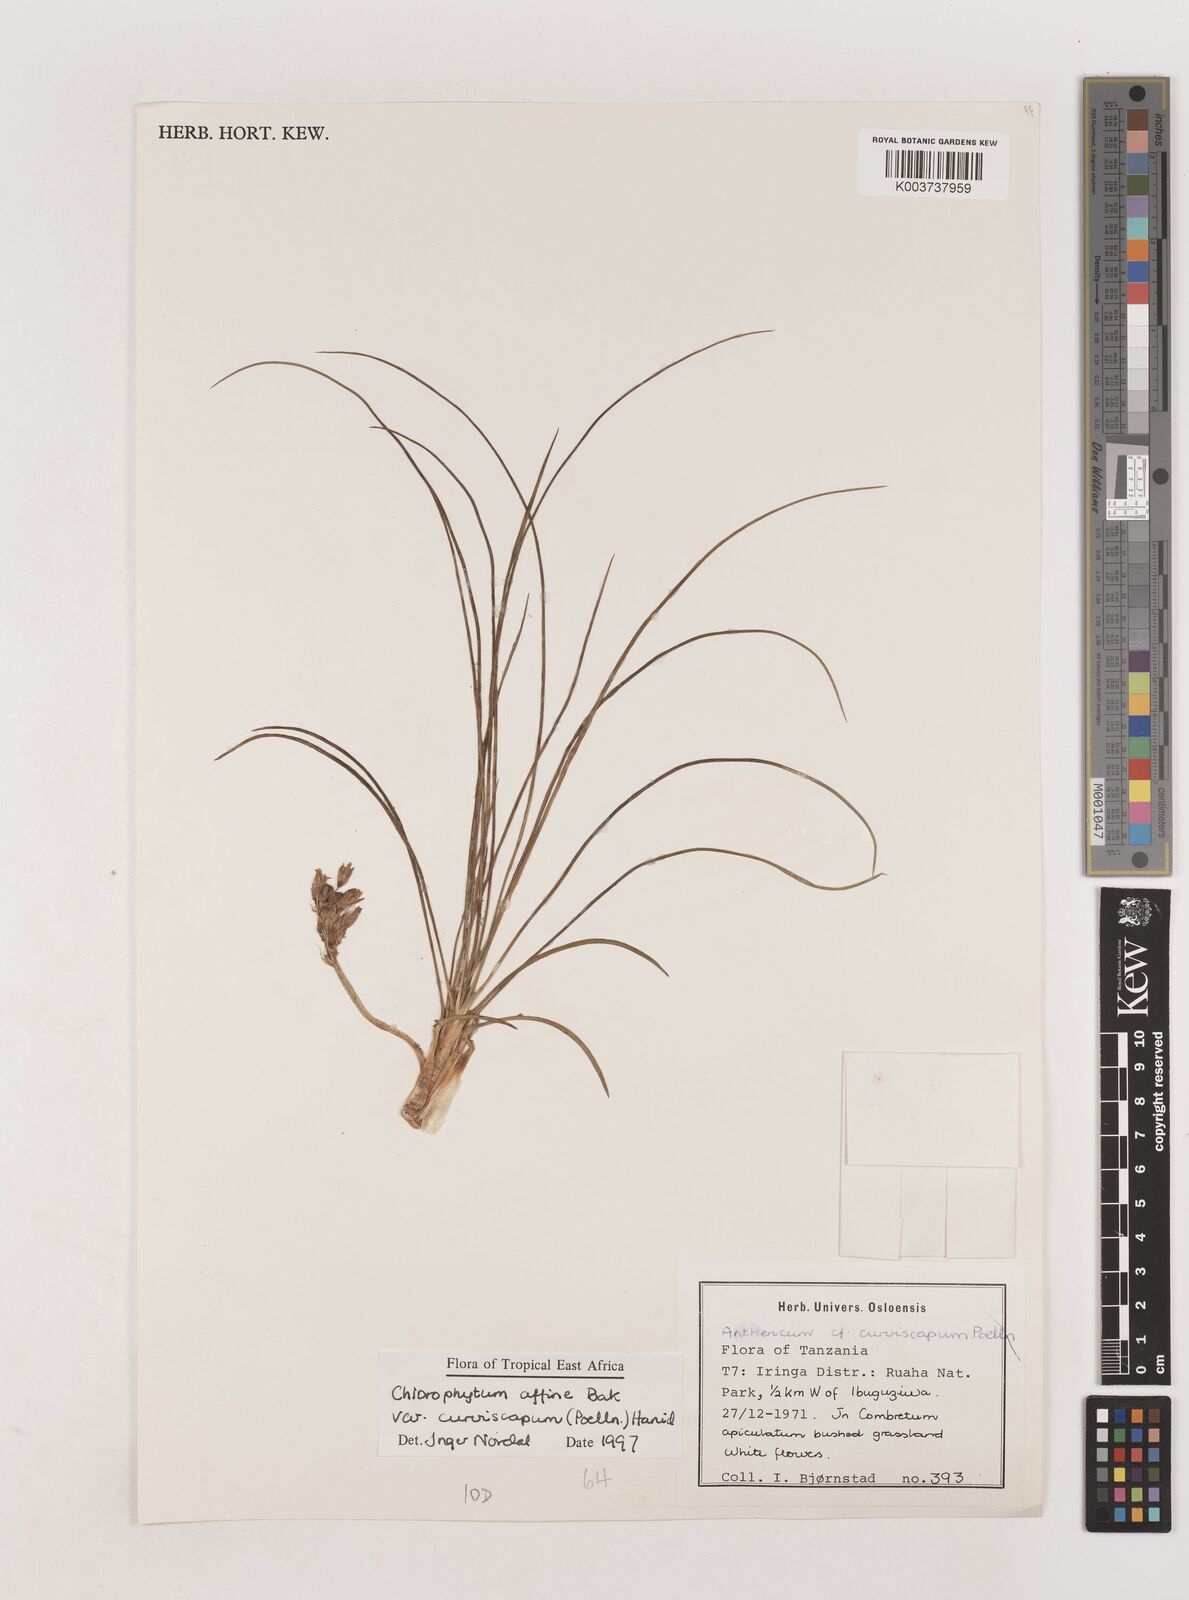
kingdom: Plantae
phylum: Tracheophyta
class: Liliopsida
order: Asparagales
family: Asparagaceae
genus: Chlorophytum
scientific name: Chlorophytum tordense
